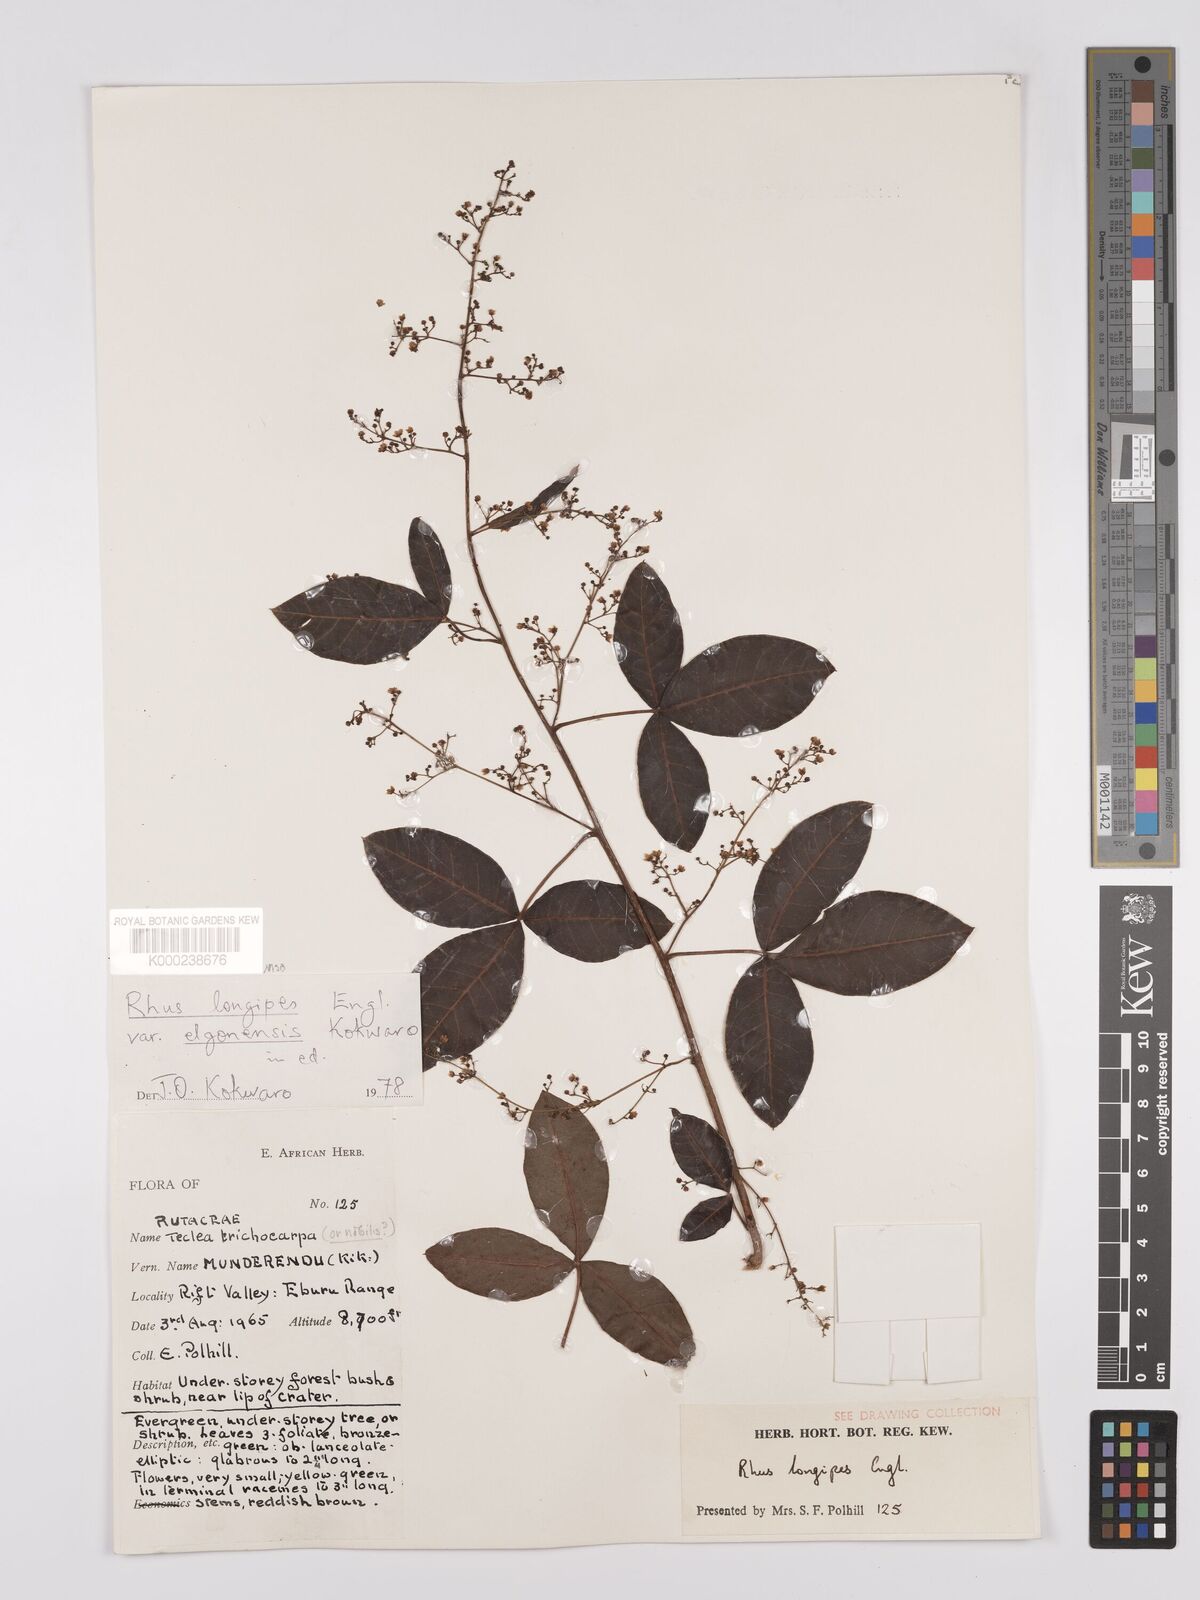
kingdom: Plantae
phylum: Tracheophyta
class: Magnoliopsida
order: Sapindales
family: Anacardiaceae
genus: Searsia
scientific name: Searsia longipes
